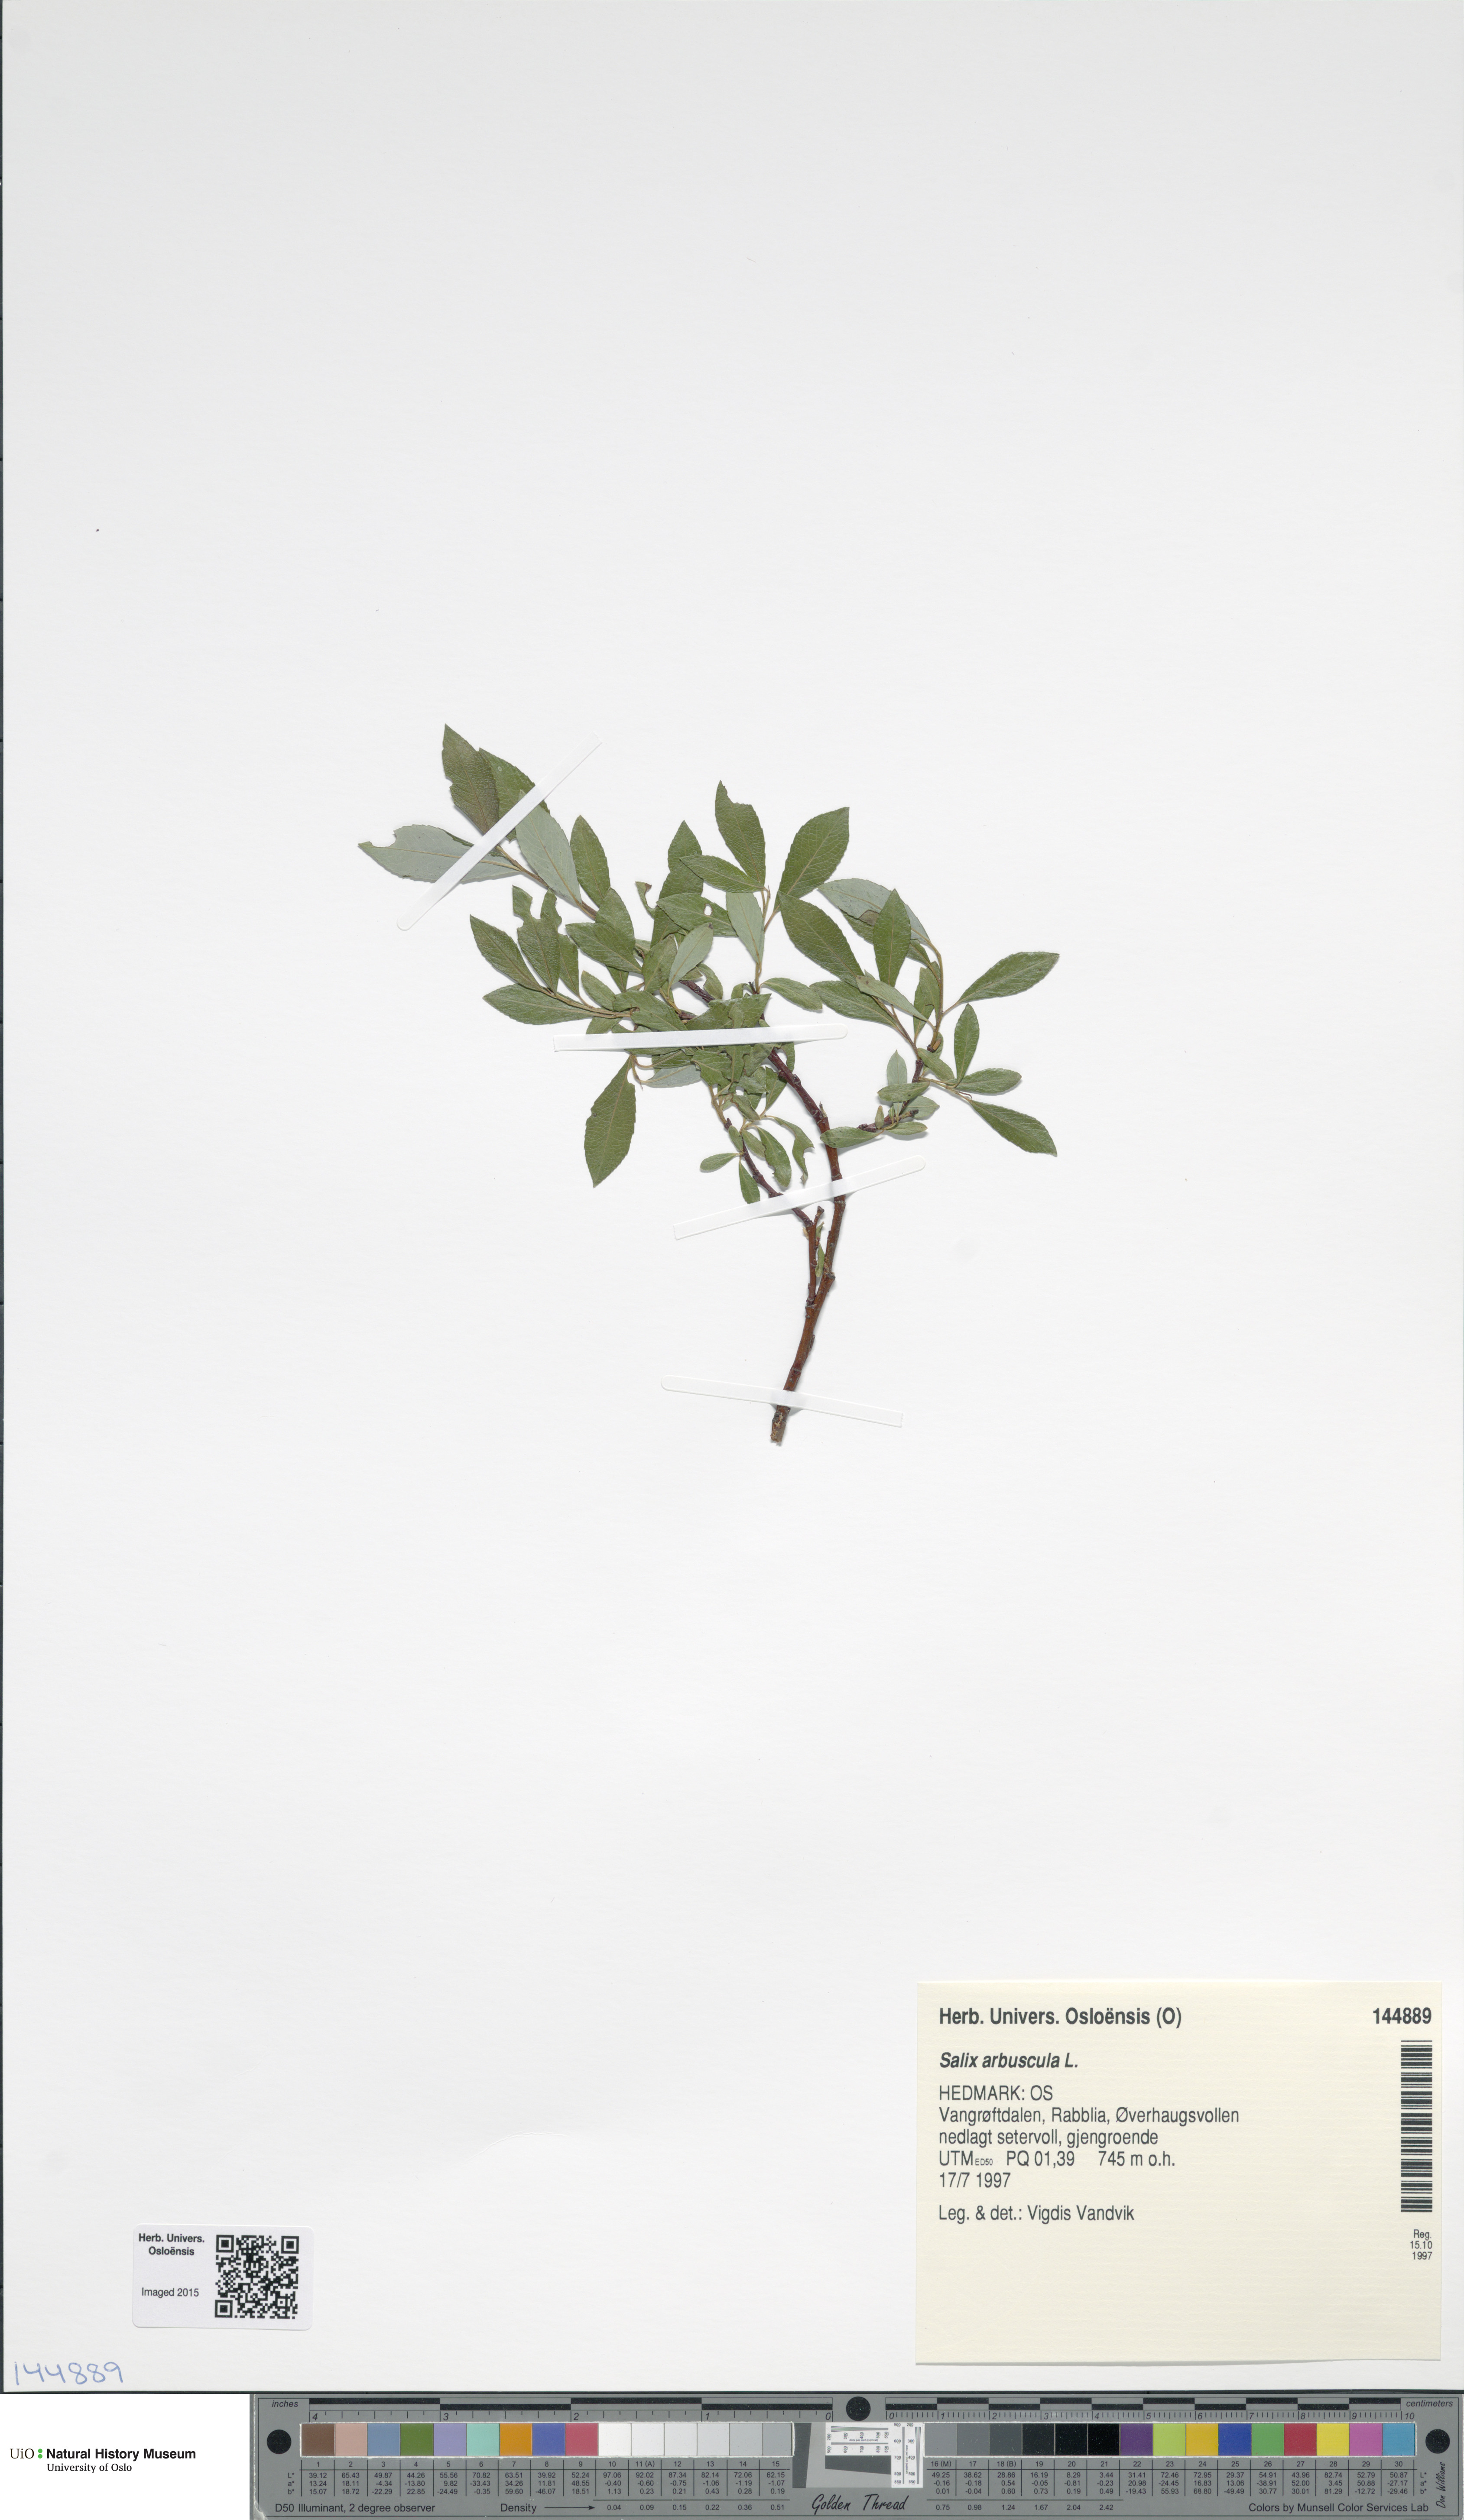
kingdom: Plantae
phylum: Tracheophyta
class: Magnoliopsida
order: Malpighiales
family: Salicaceae
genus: Salix
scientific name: Salix arbuscula
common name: Mountain willow
